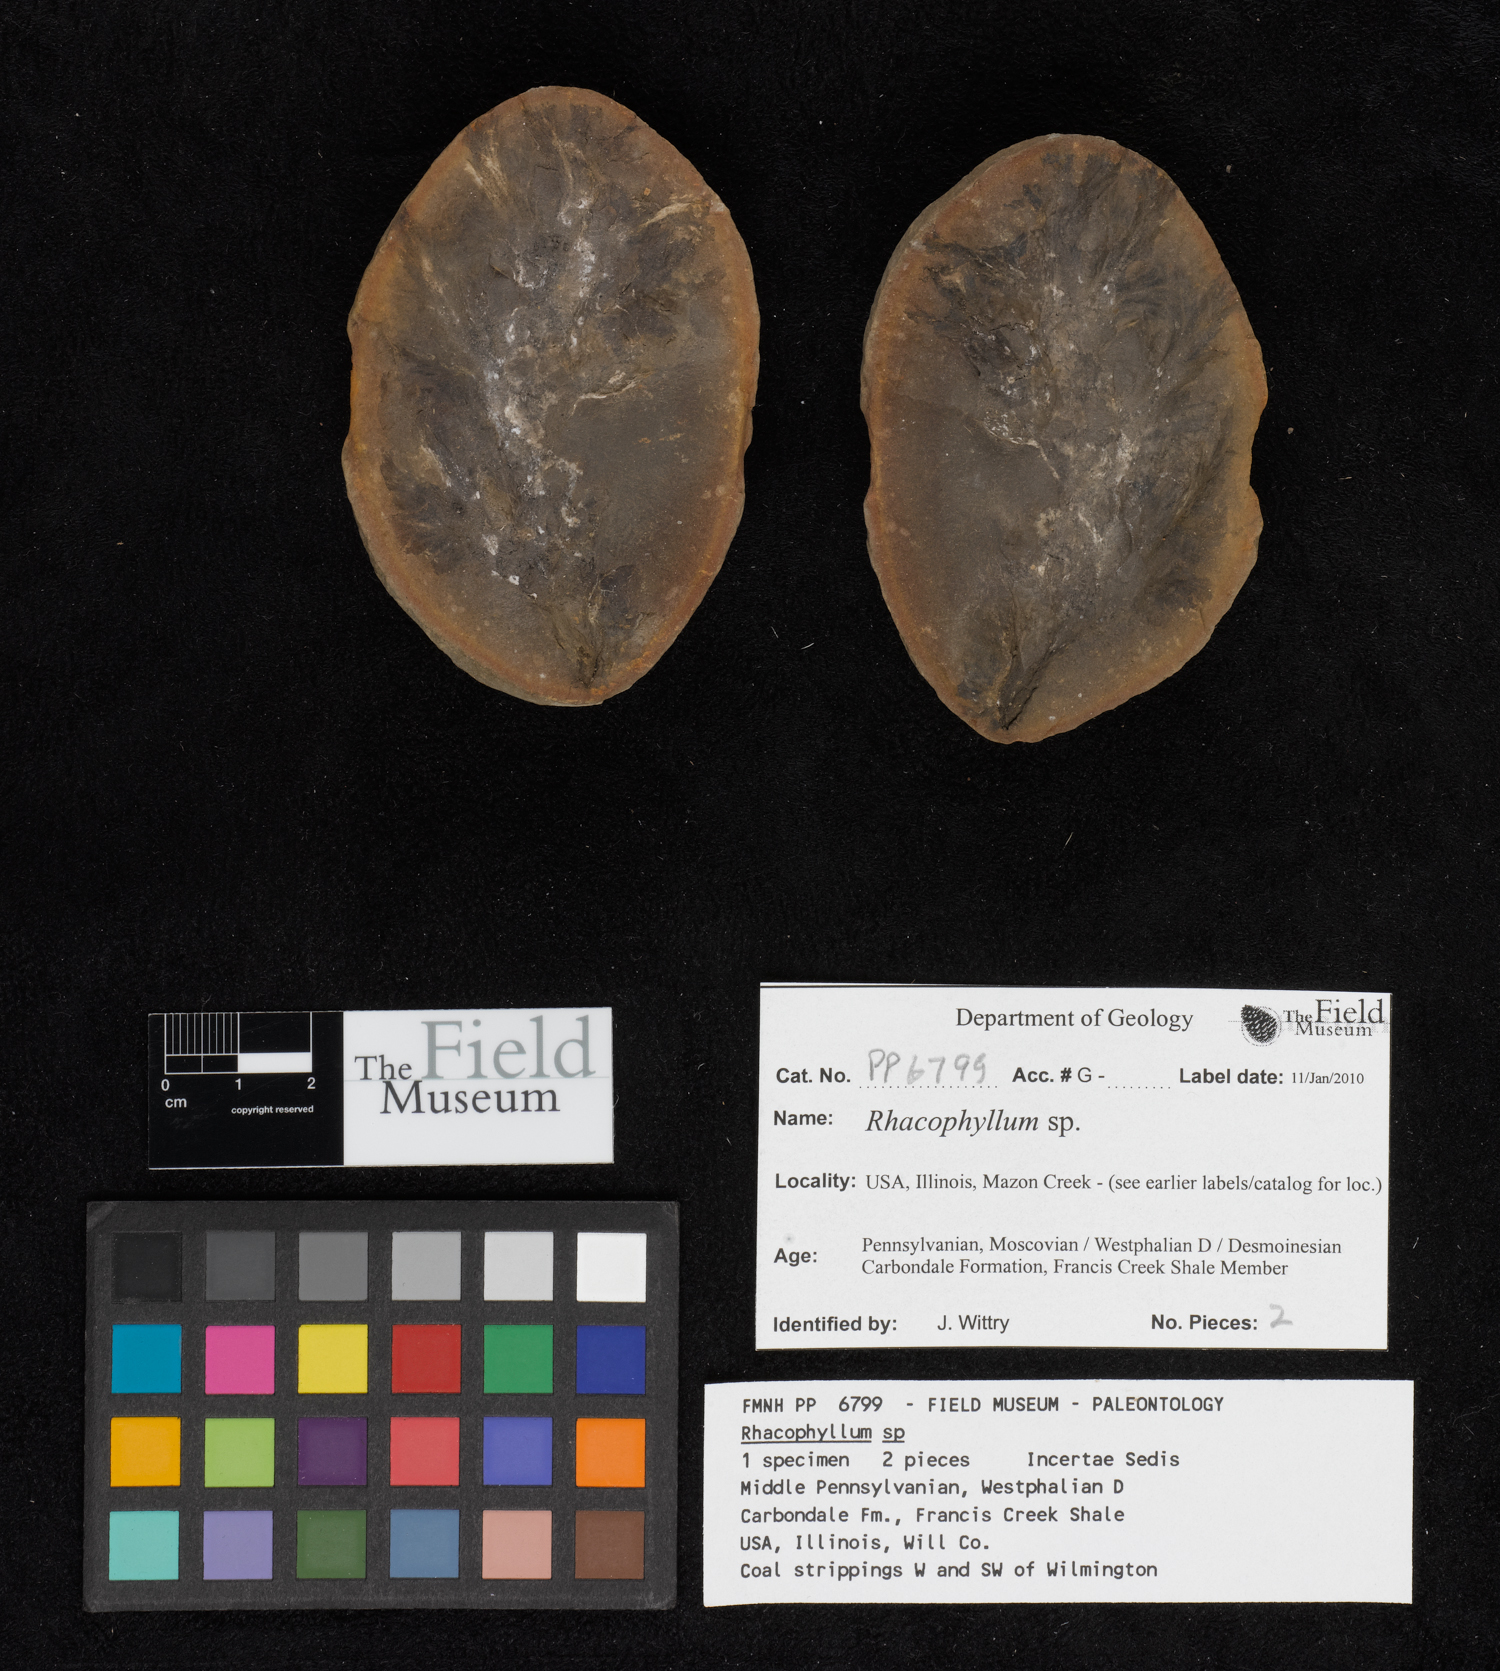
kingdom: Plantae
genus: Rhacophyllum
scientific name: Rhacophyllum
